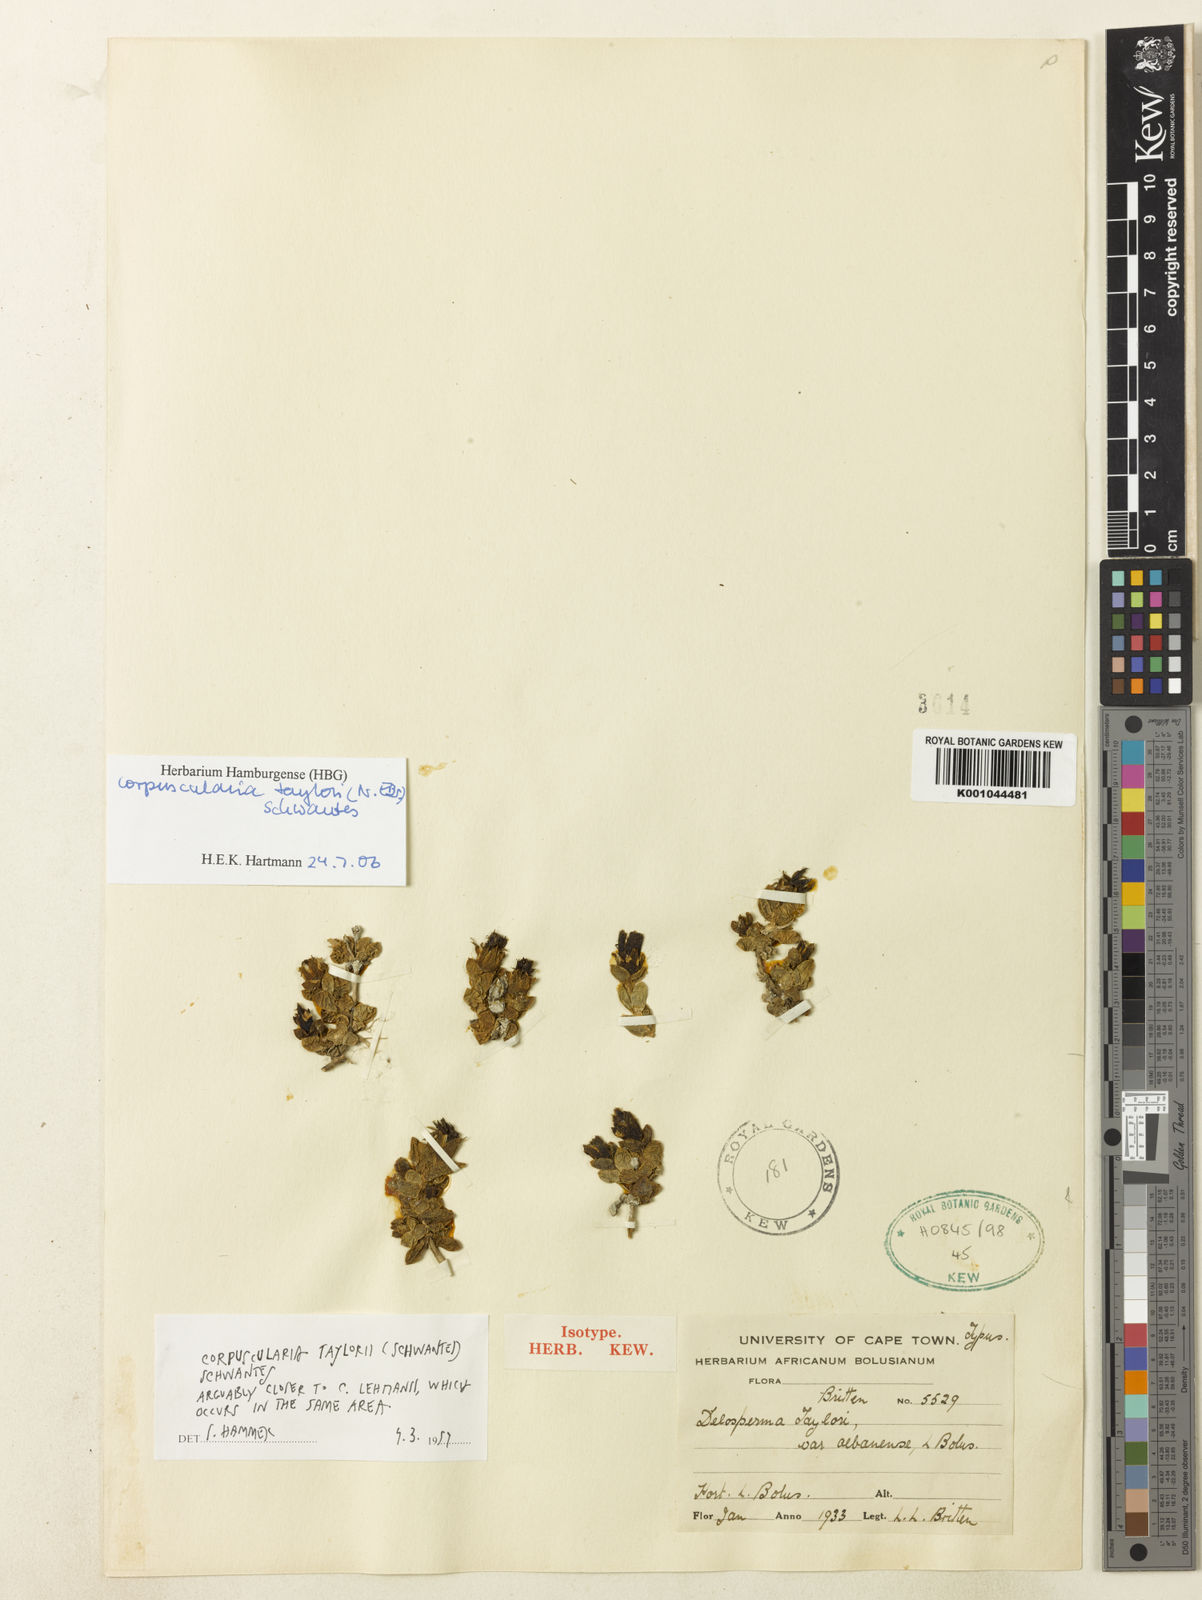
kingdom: Plantae
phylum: Tracheophyta
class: Magnoliopsida
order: Caryophyllales
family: Aizoaceae
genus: Corpuscularia
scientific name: Corpuscularia taylorii
